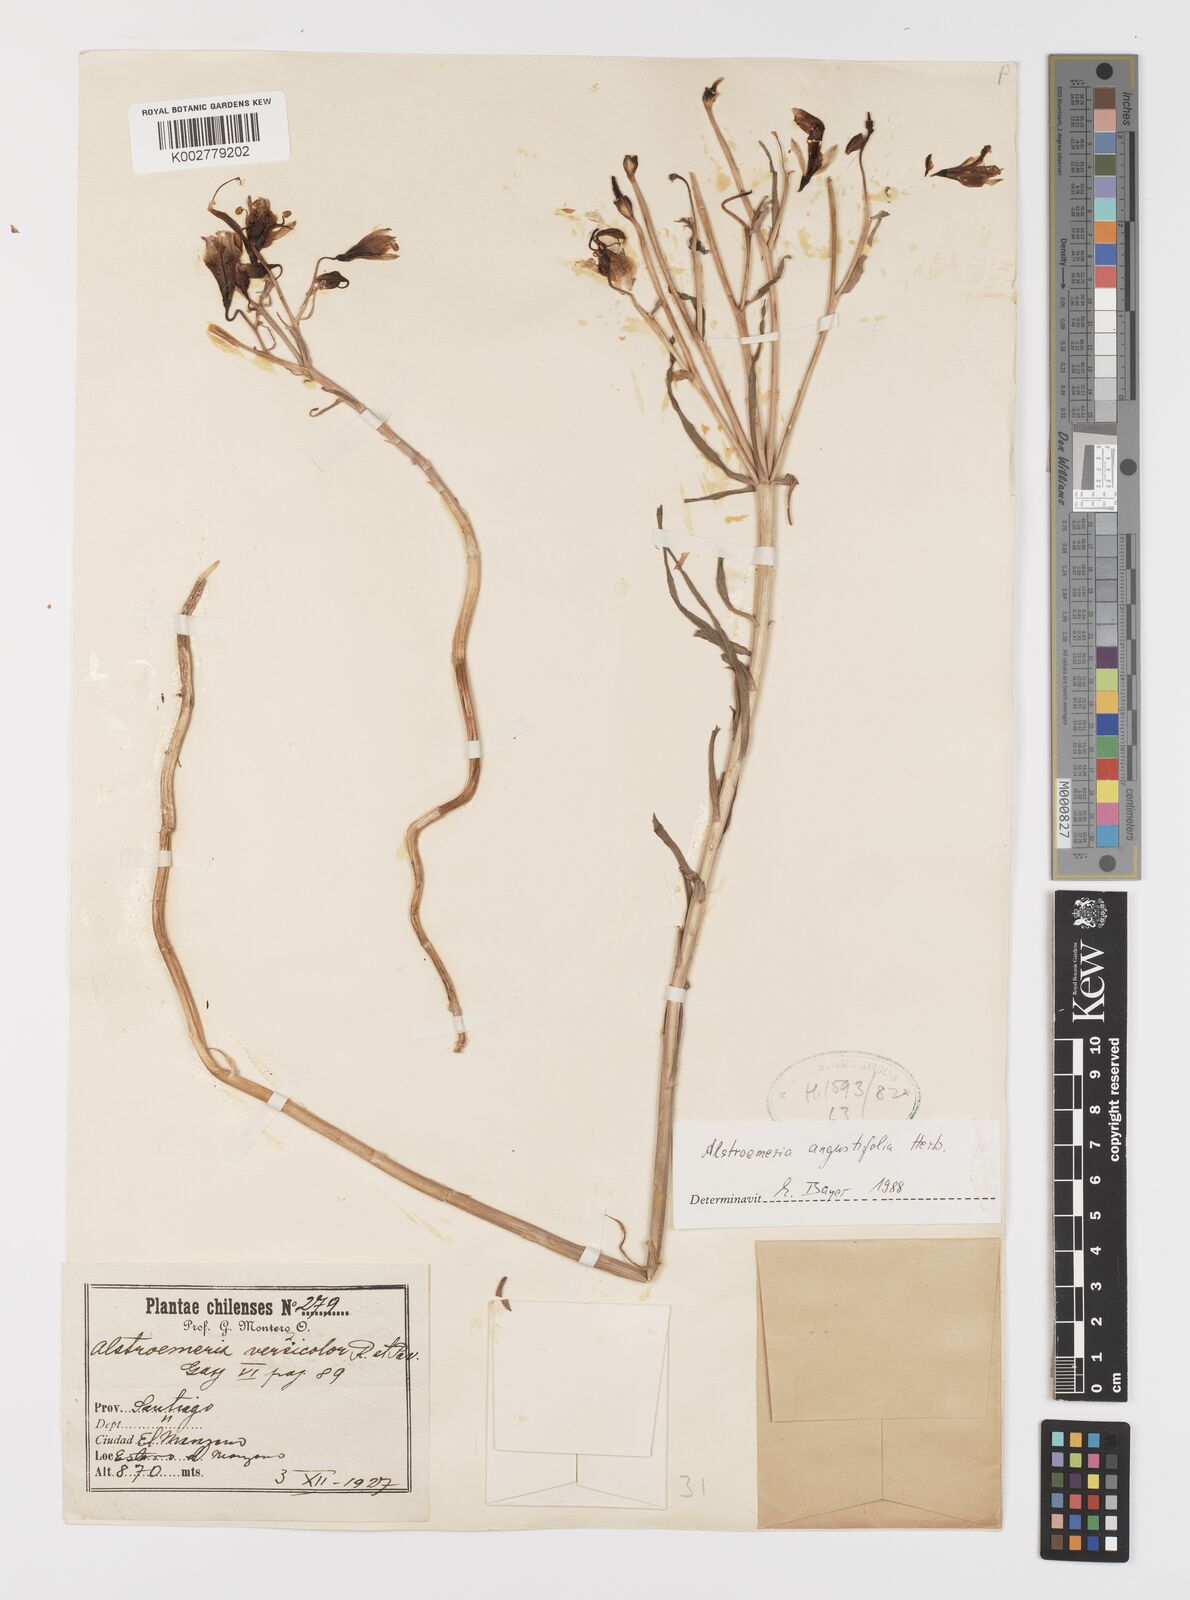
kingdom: Plantae
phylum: Tracheophyta
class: Liliopsida
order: Liliales
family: Alstroemeriaceae
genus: Alstroemeria
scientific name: Alstroemeria angustifolia
